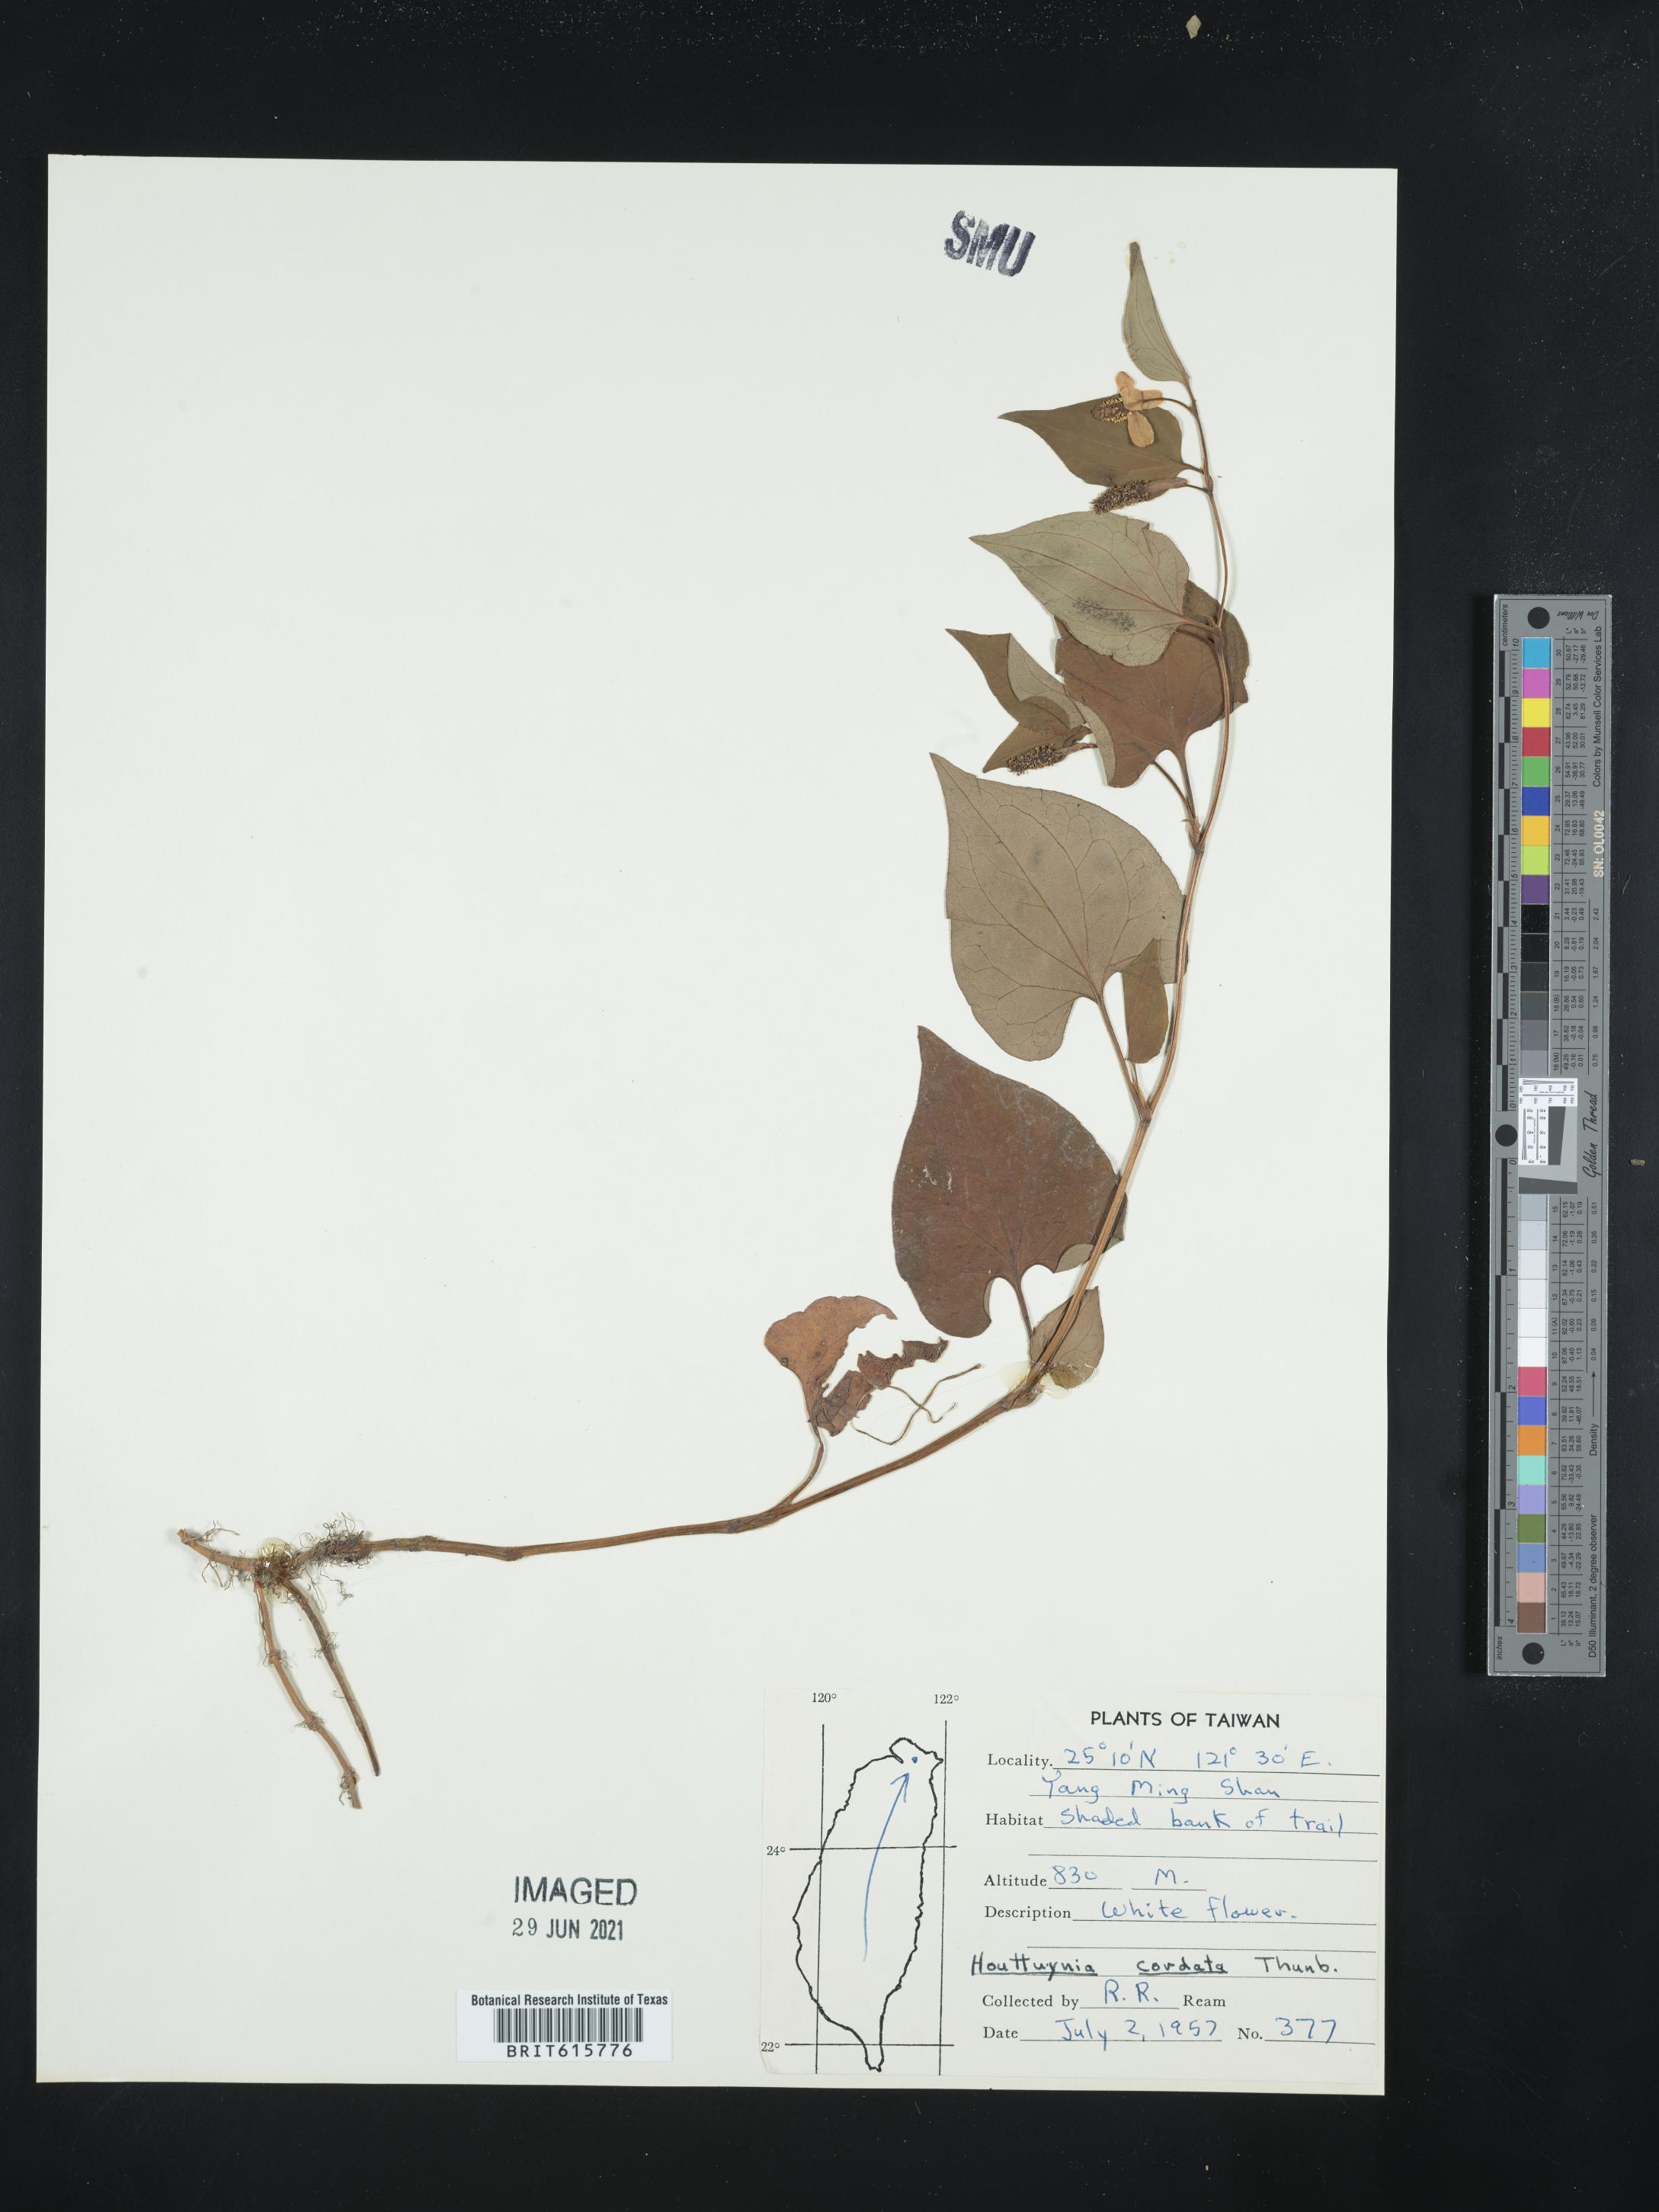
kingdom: Plantae
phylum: Tracheophyta
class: Magnoliopsida
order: Piperales
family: Saururaceae
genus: Houttuynia
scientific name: Houttuynia cordata
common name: Chameleon
